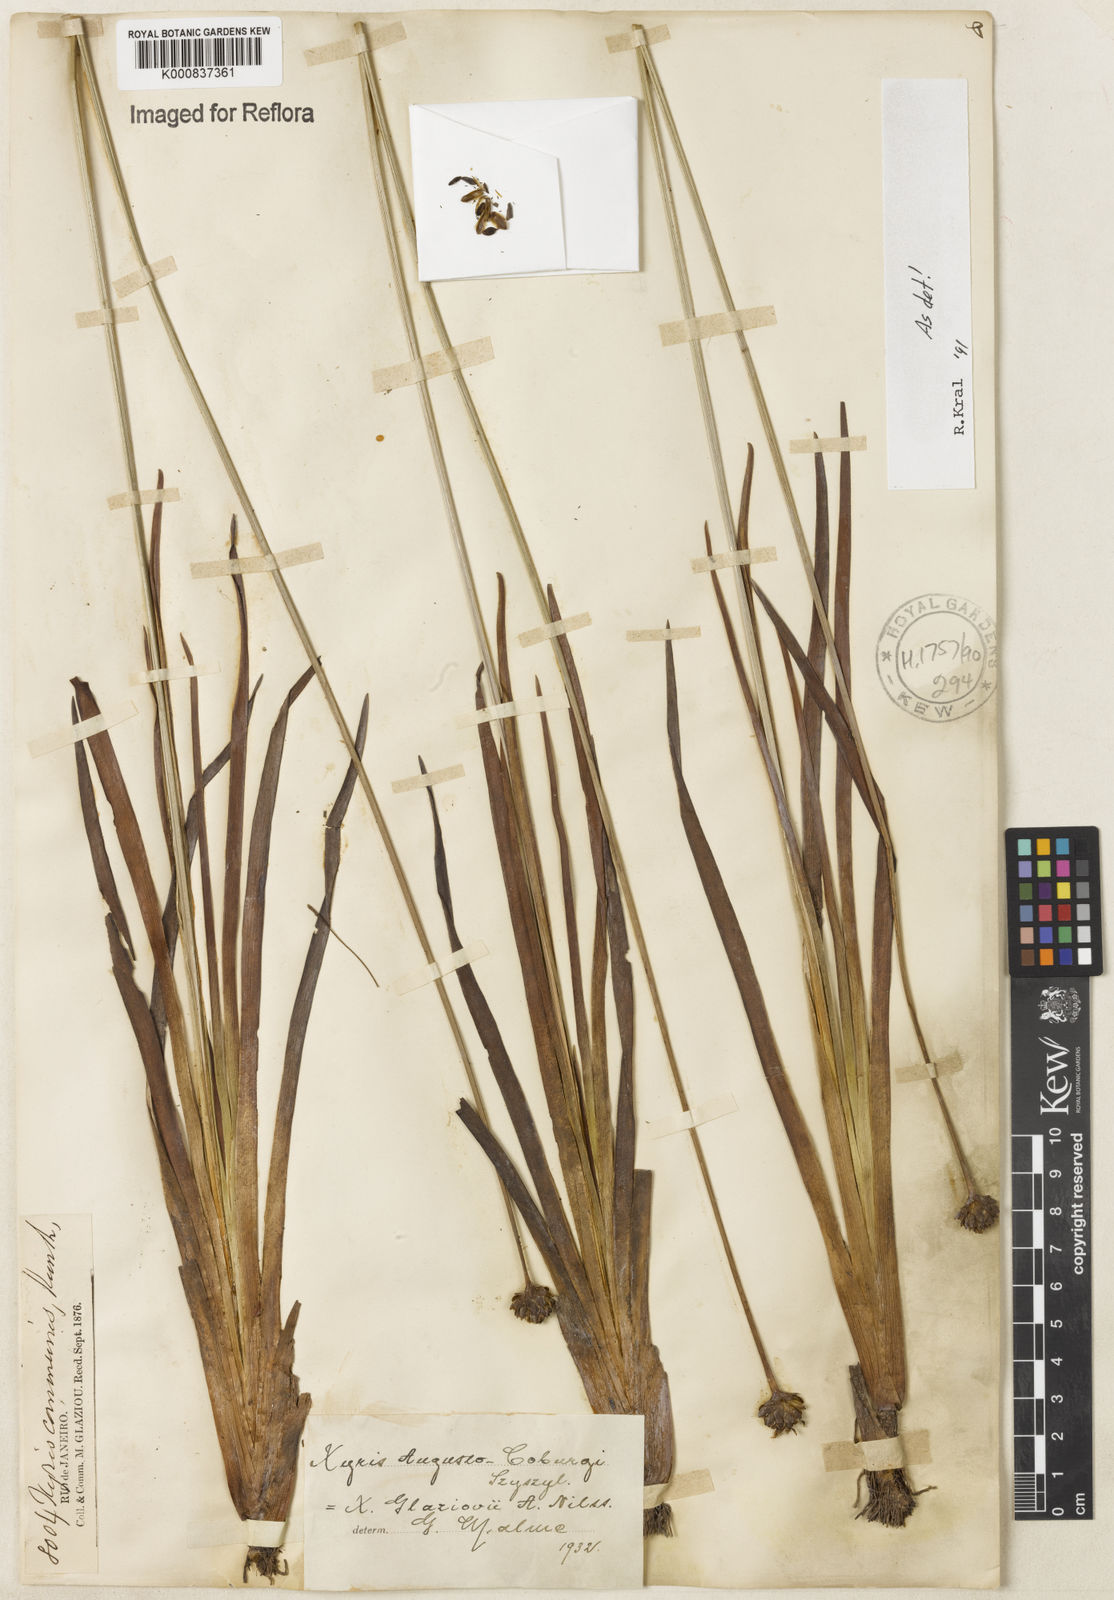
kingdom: Plantae
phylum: Tracheophyta
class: Liliopsida
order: Poales
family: Xyridaceae
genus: Xyris
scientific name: Xyris augusto-coburgii
